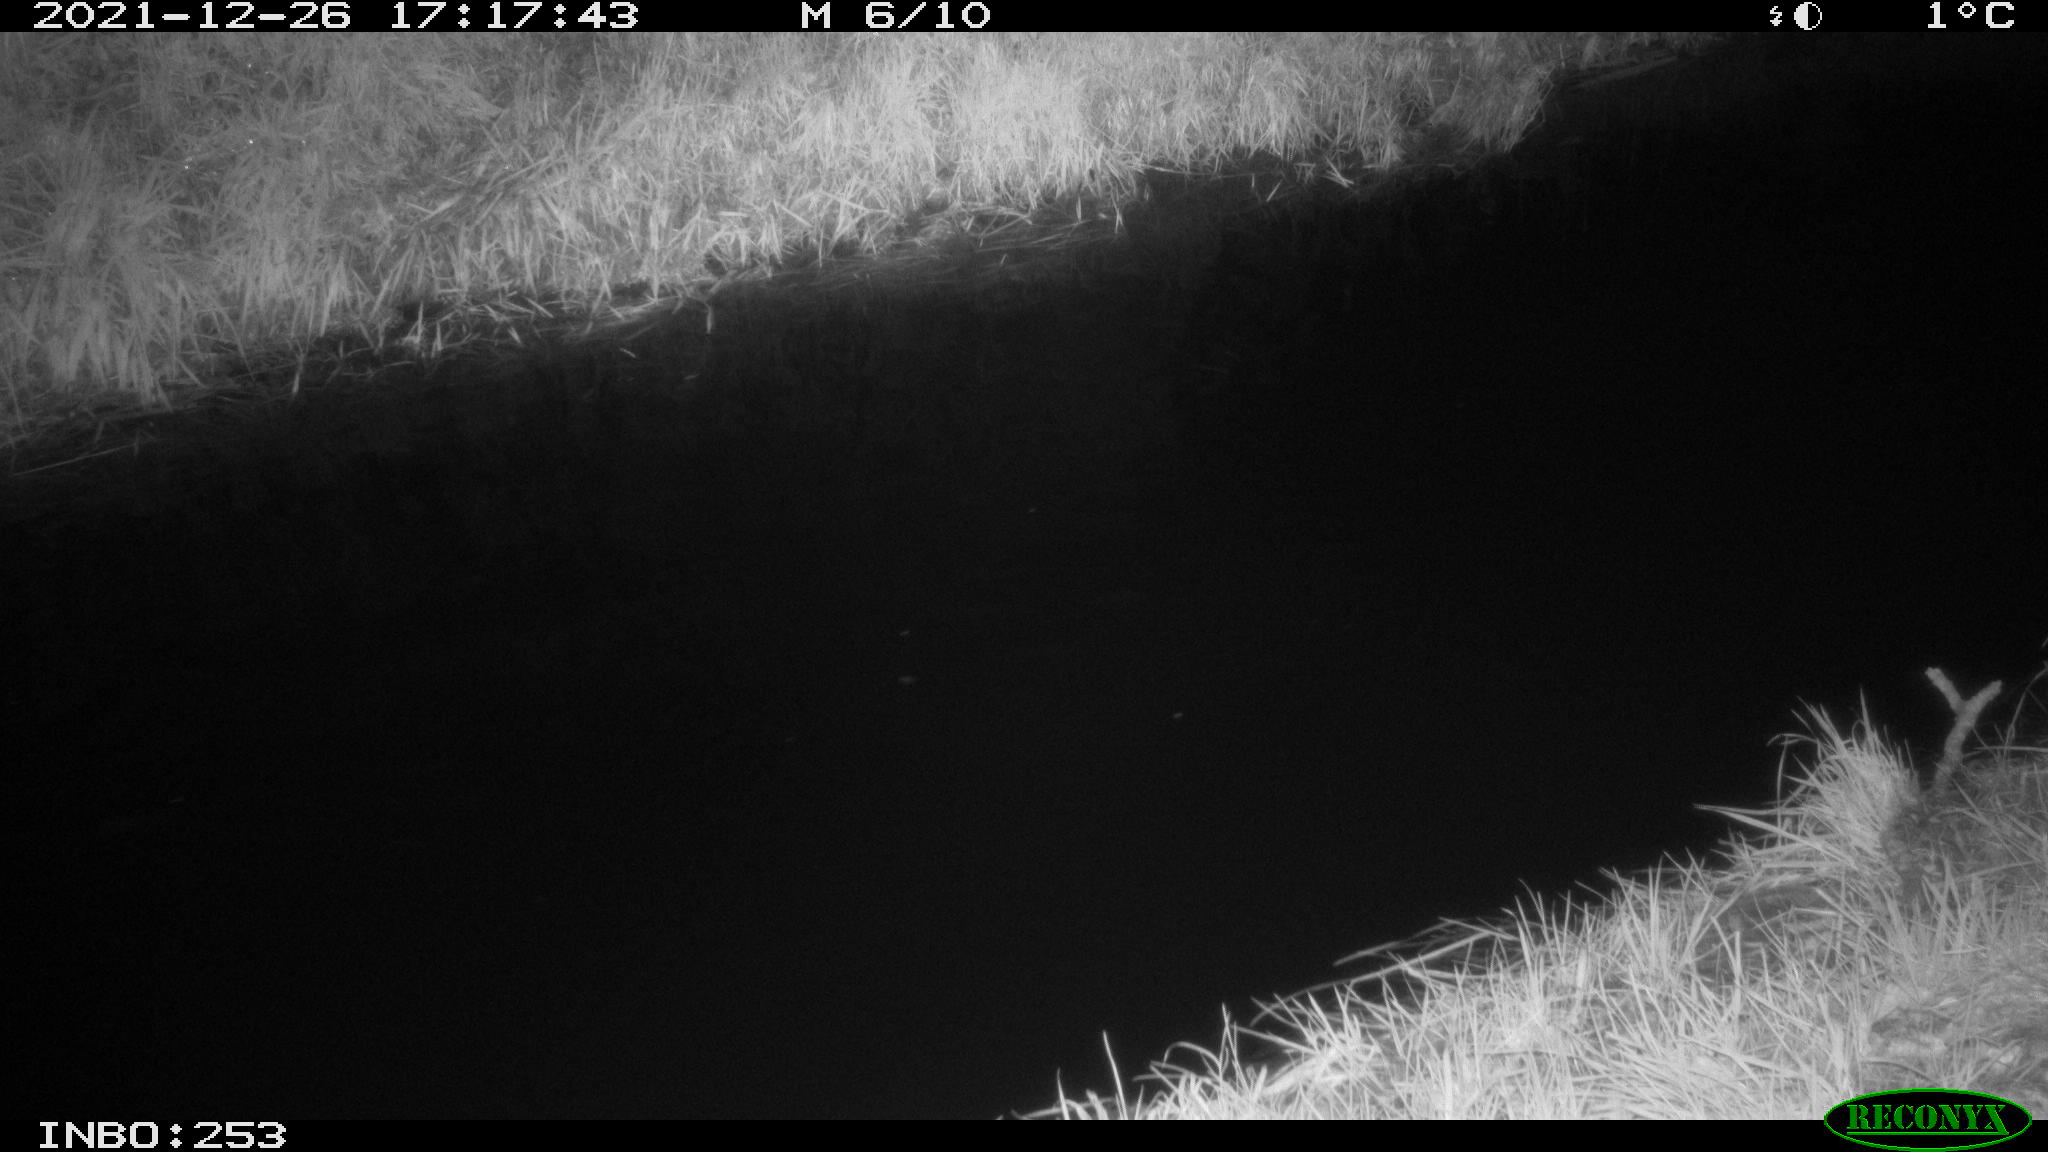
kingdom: Animalia
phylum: Chordata
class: Aves
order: Anseriformes
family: Anatidae
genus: Anas
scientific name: Anas
